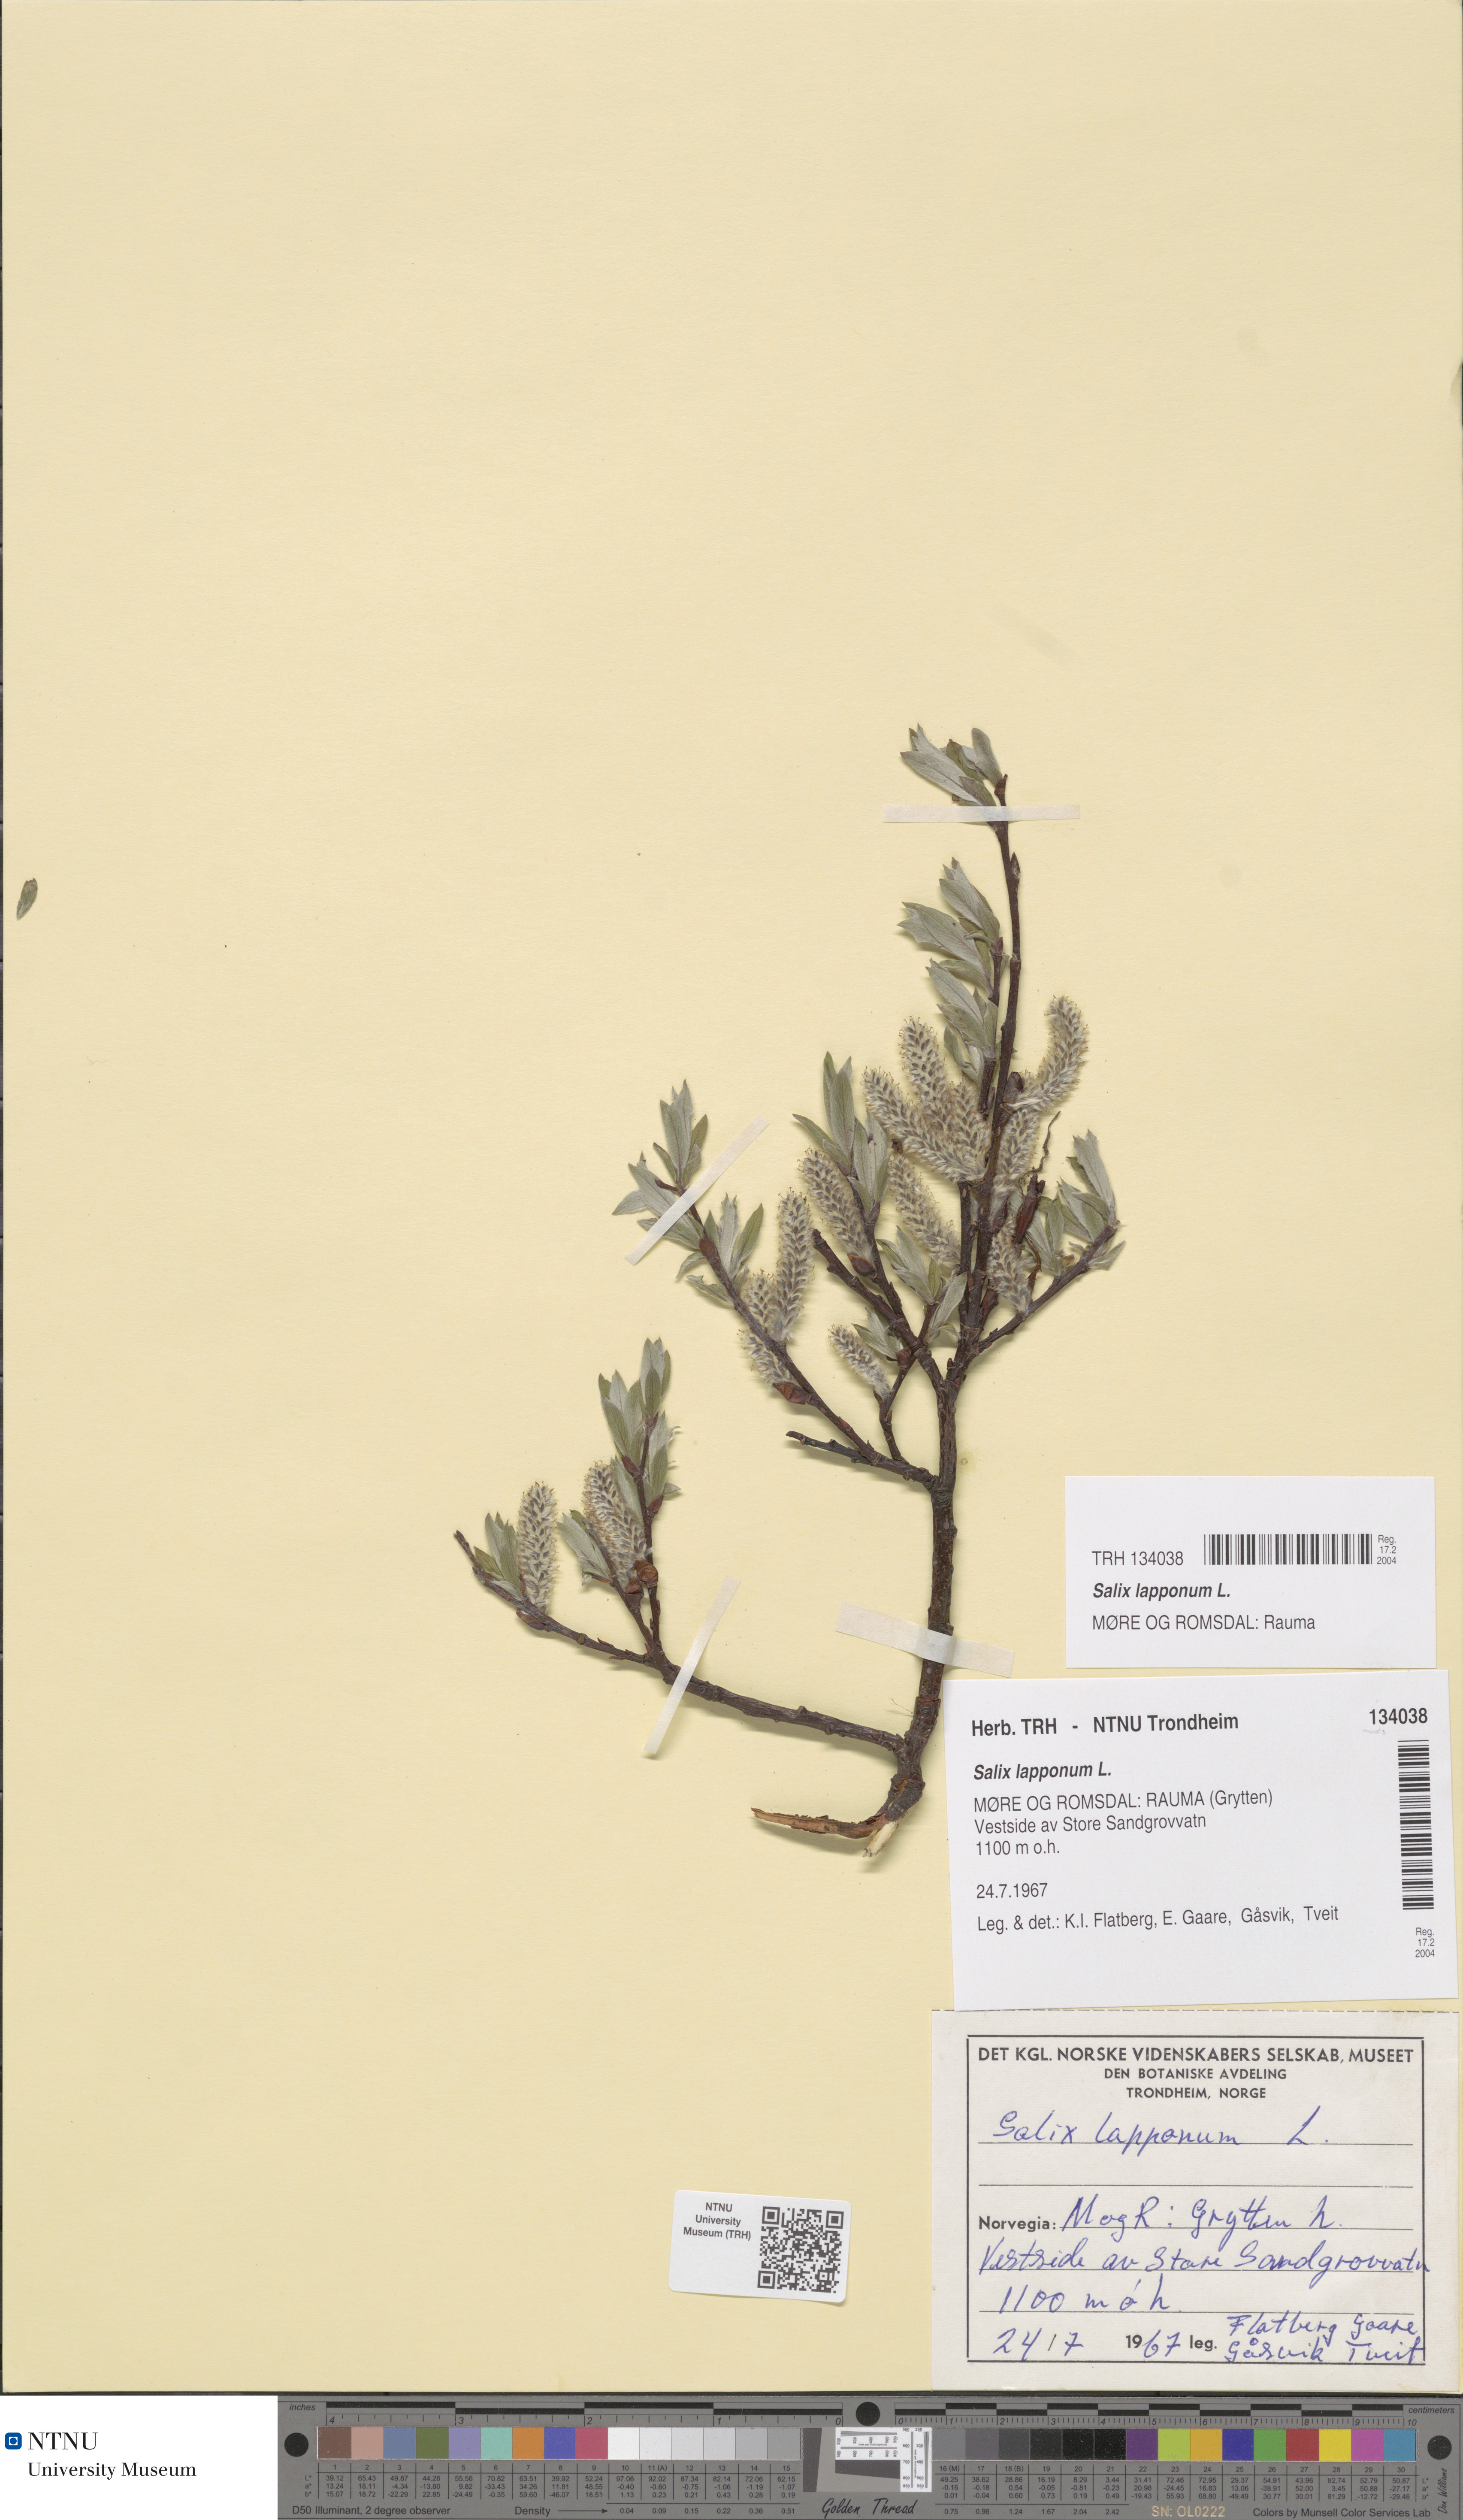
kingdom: Plantae
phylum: Tracheophyta
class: Magnoliopsida
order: Malpighiales
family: Salicaceae
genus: Salix
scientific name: Salix lapponum
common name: Downy willow
